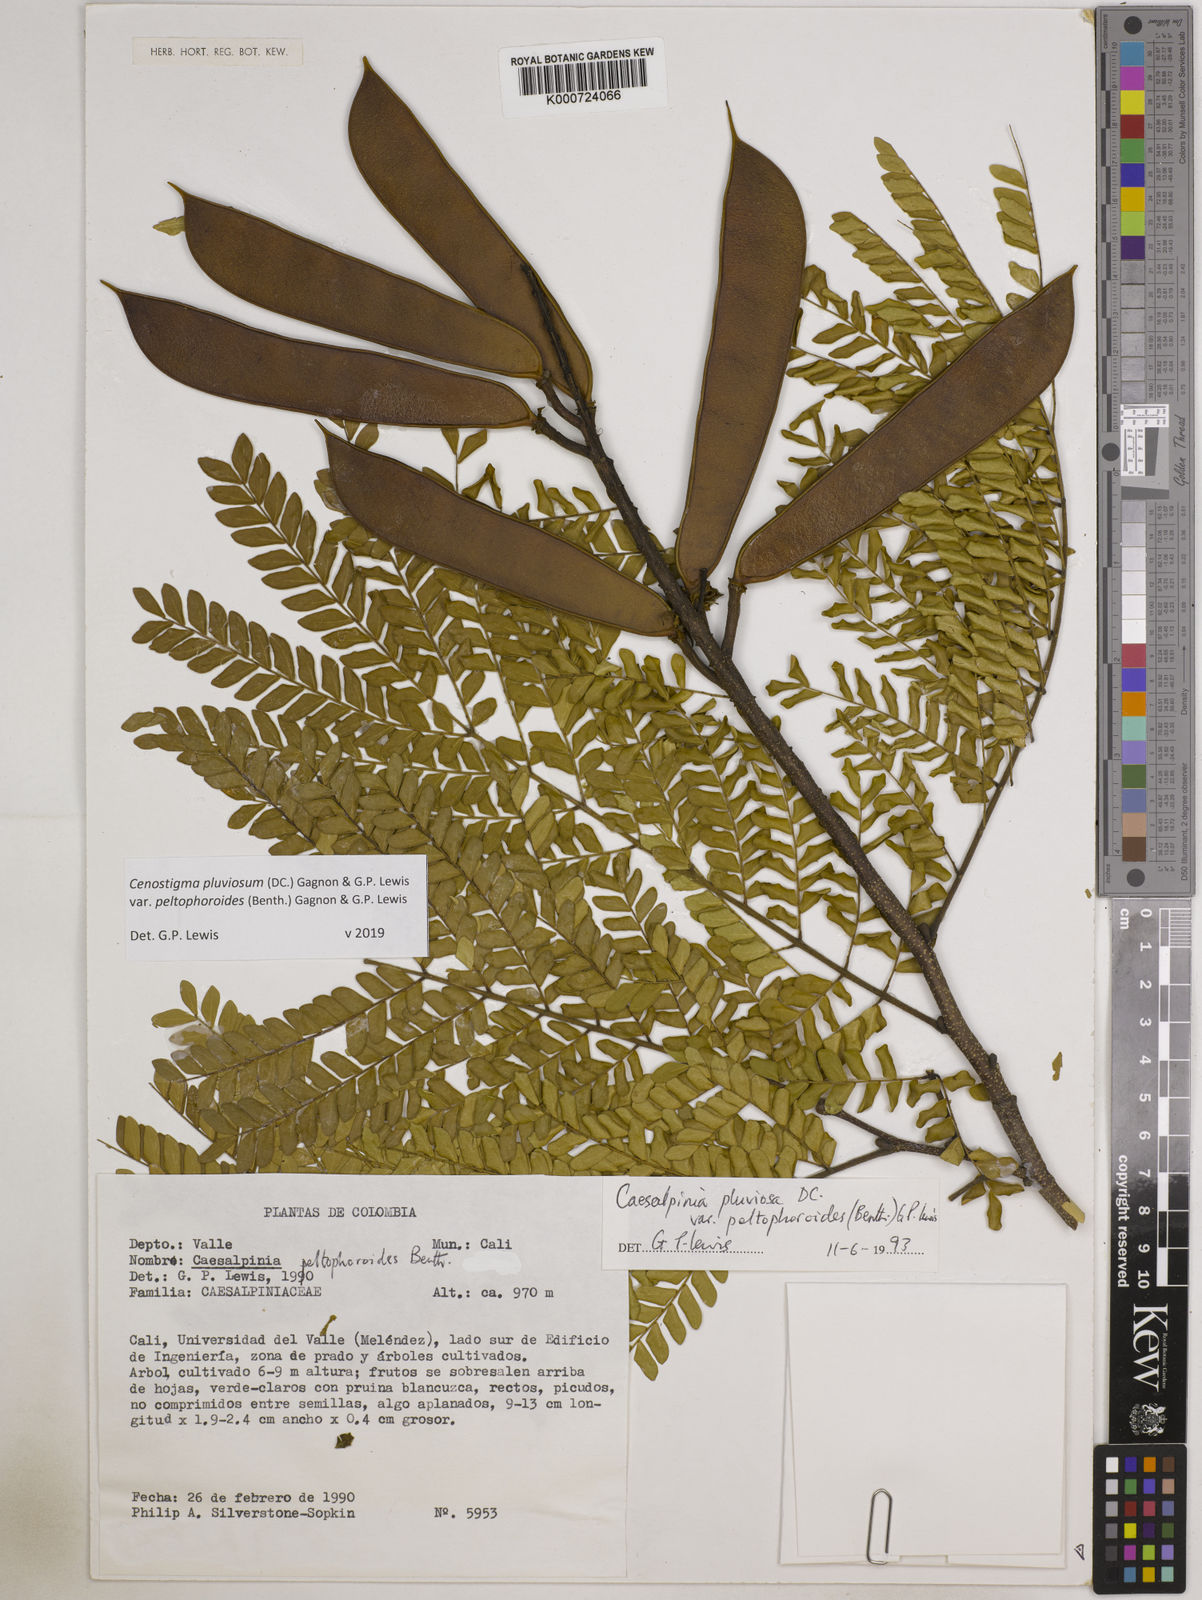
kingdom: Plantae
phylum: Tracheophyta
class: Magnoliopsida
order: Fabales
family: Fabaceae
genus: Cenostigma
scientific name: Cenostigma pluviosum
